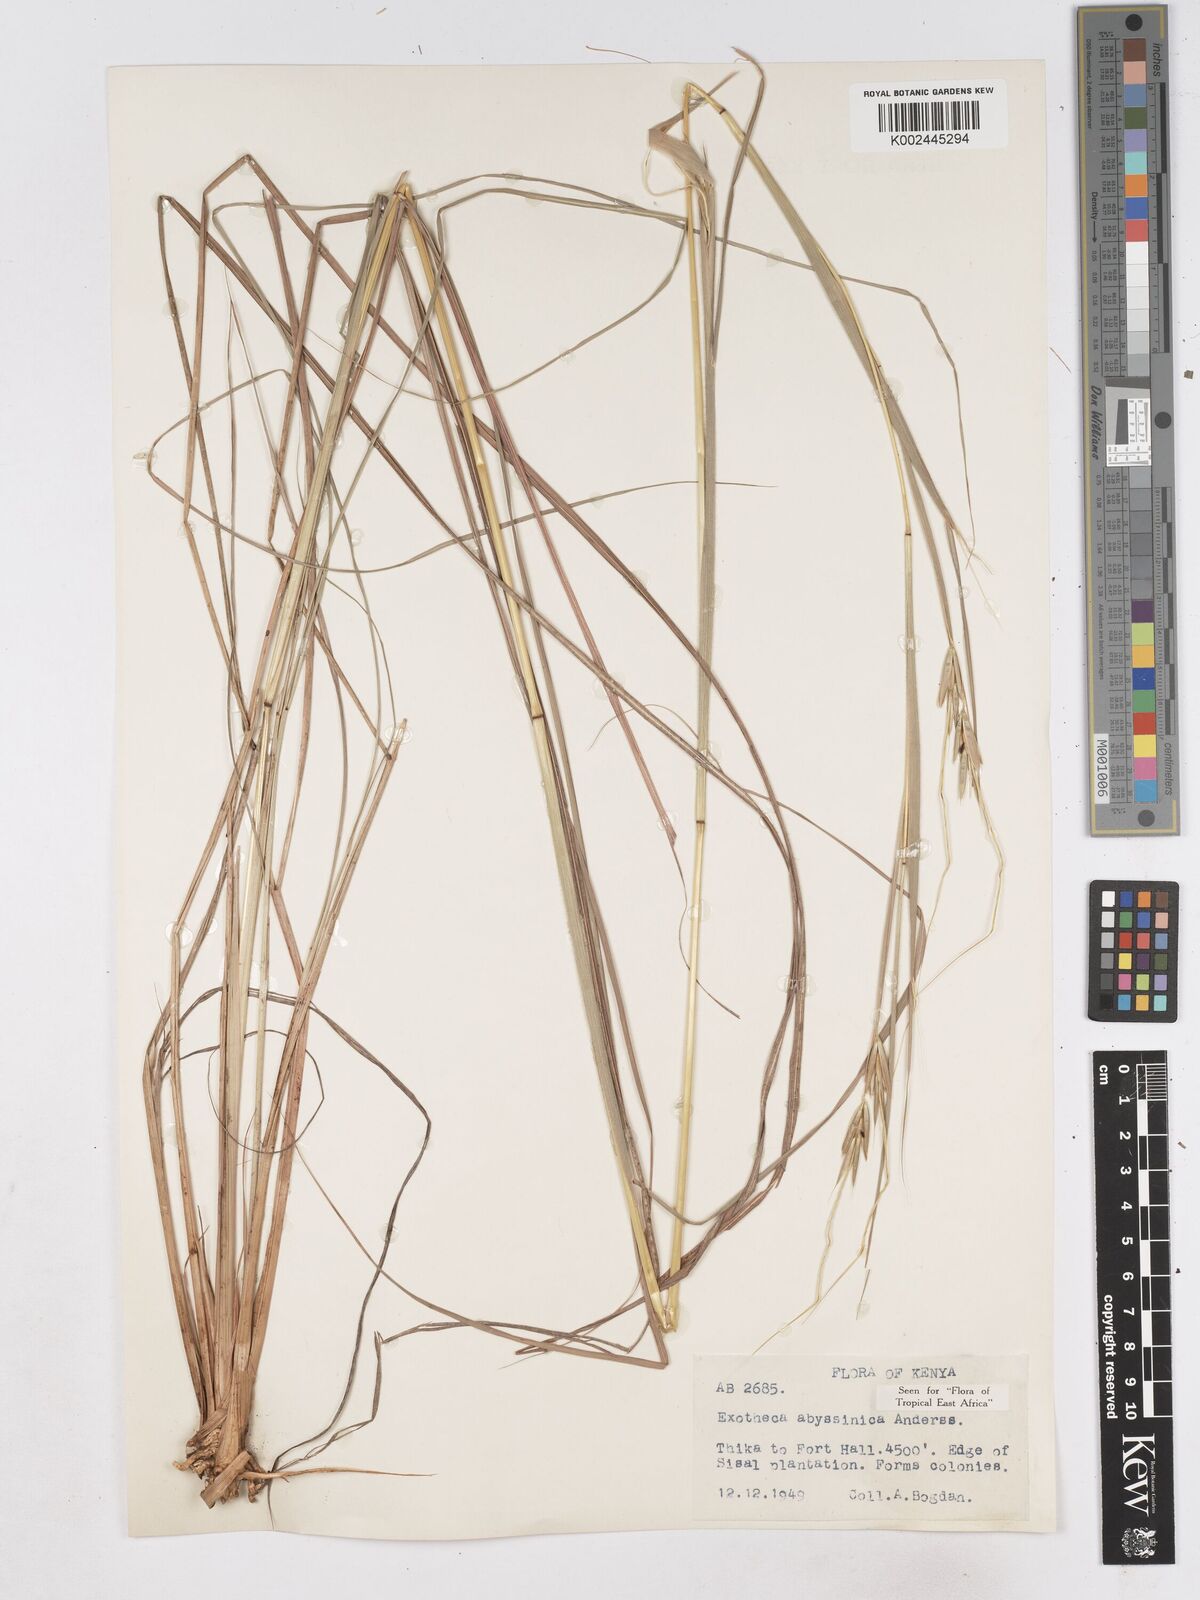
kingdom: Plantae
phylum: Tracheophyta
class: Liliopsida
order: Poales
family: Poaceae
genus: Exotheca
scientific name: Exotheca abyssinica
